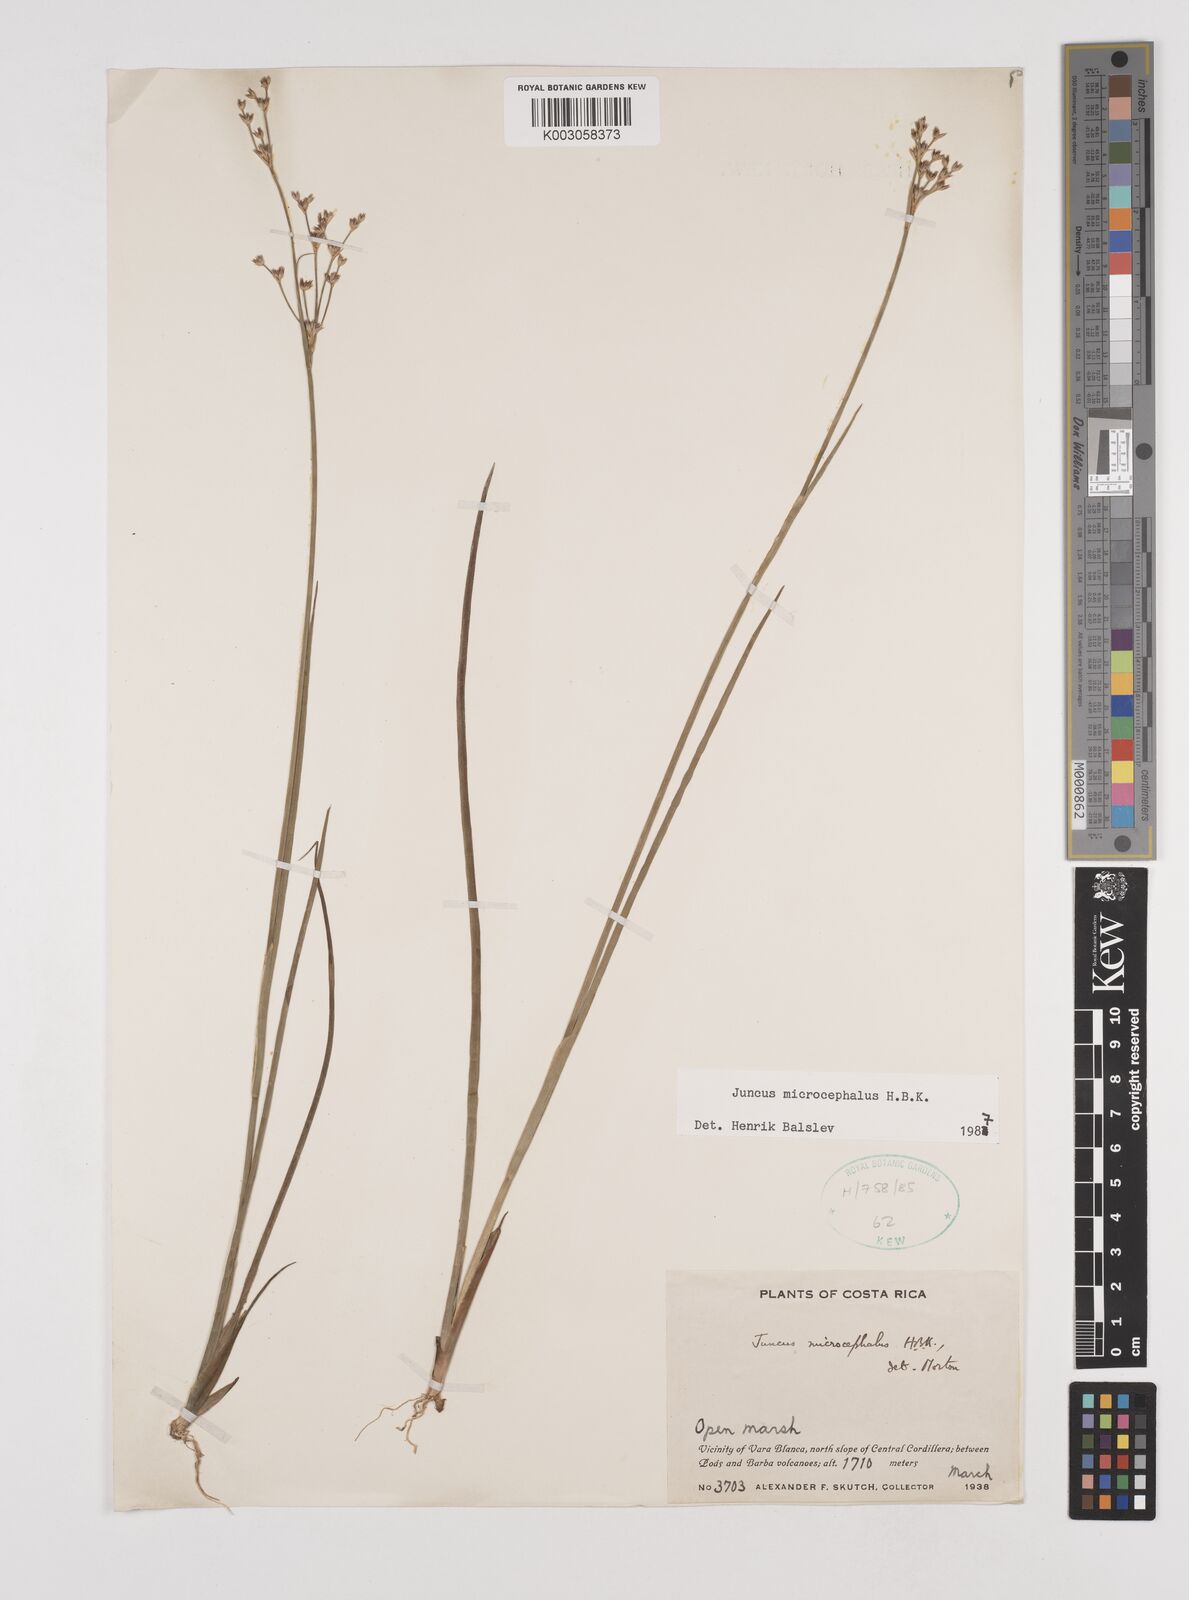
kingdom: Plantae
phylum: Tracheophyta
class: Liliopsida
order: Poales
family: Juncaceae
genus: Juncus
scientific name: Juncus microcephalus
